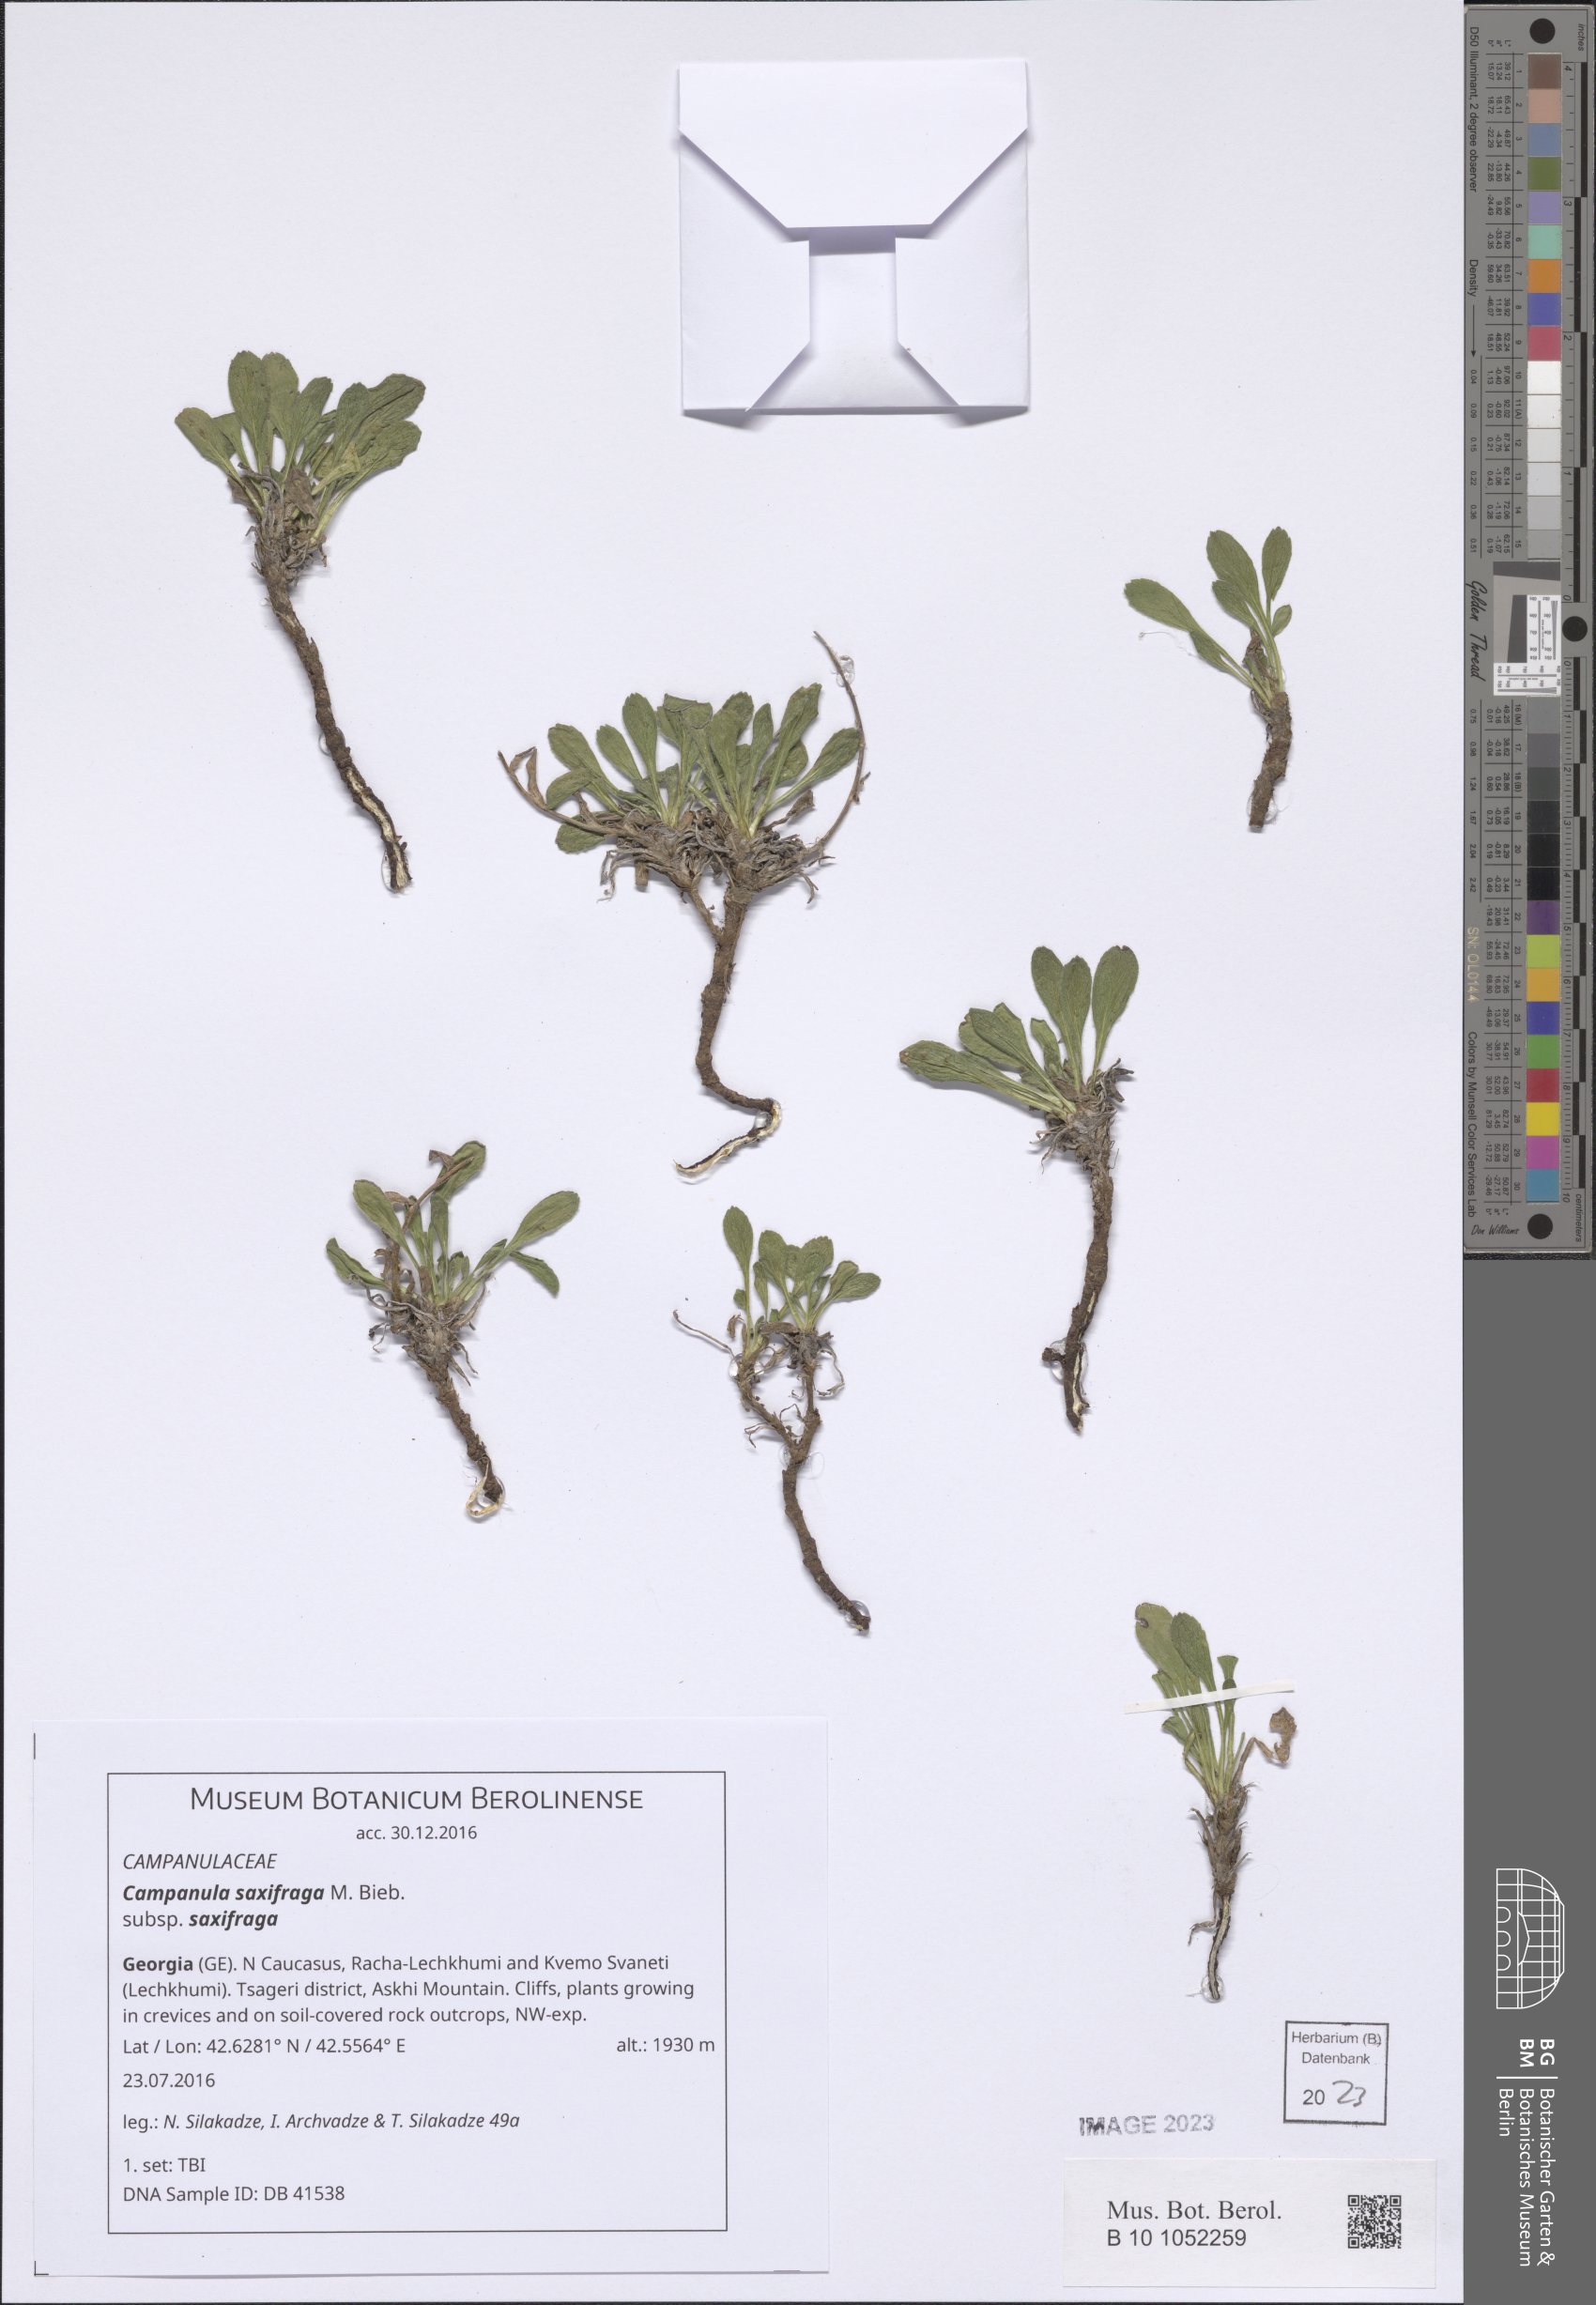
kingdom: Plantae
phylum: Tracheophyta
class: Magnoliopsida
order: Asterales
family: Campanulaceae
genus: Campanula
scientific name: Campanula saxifraga
